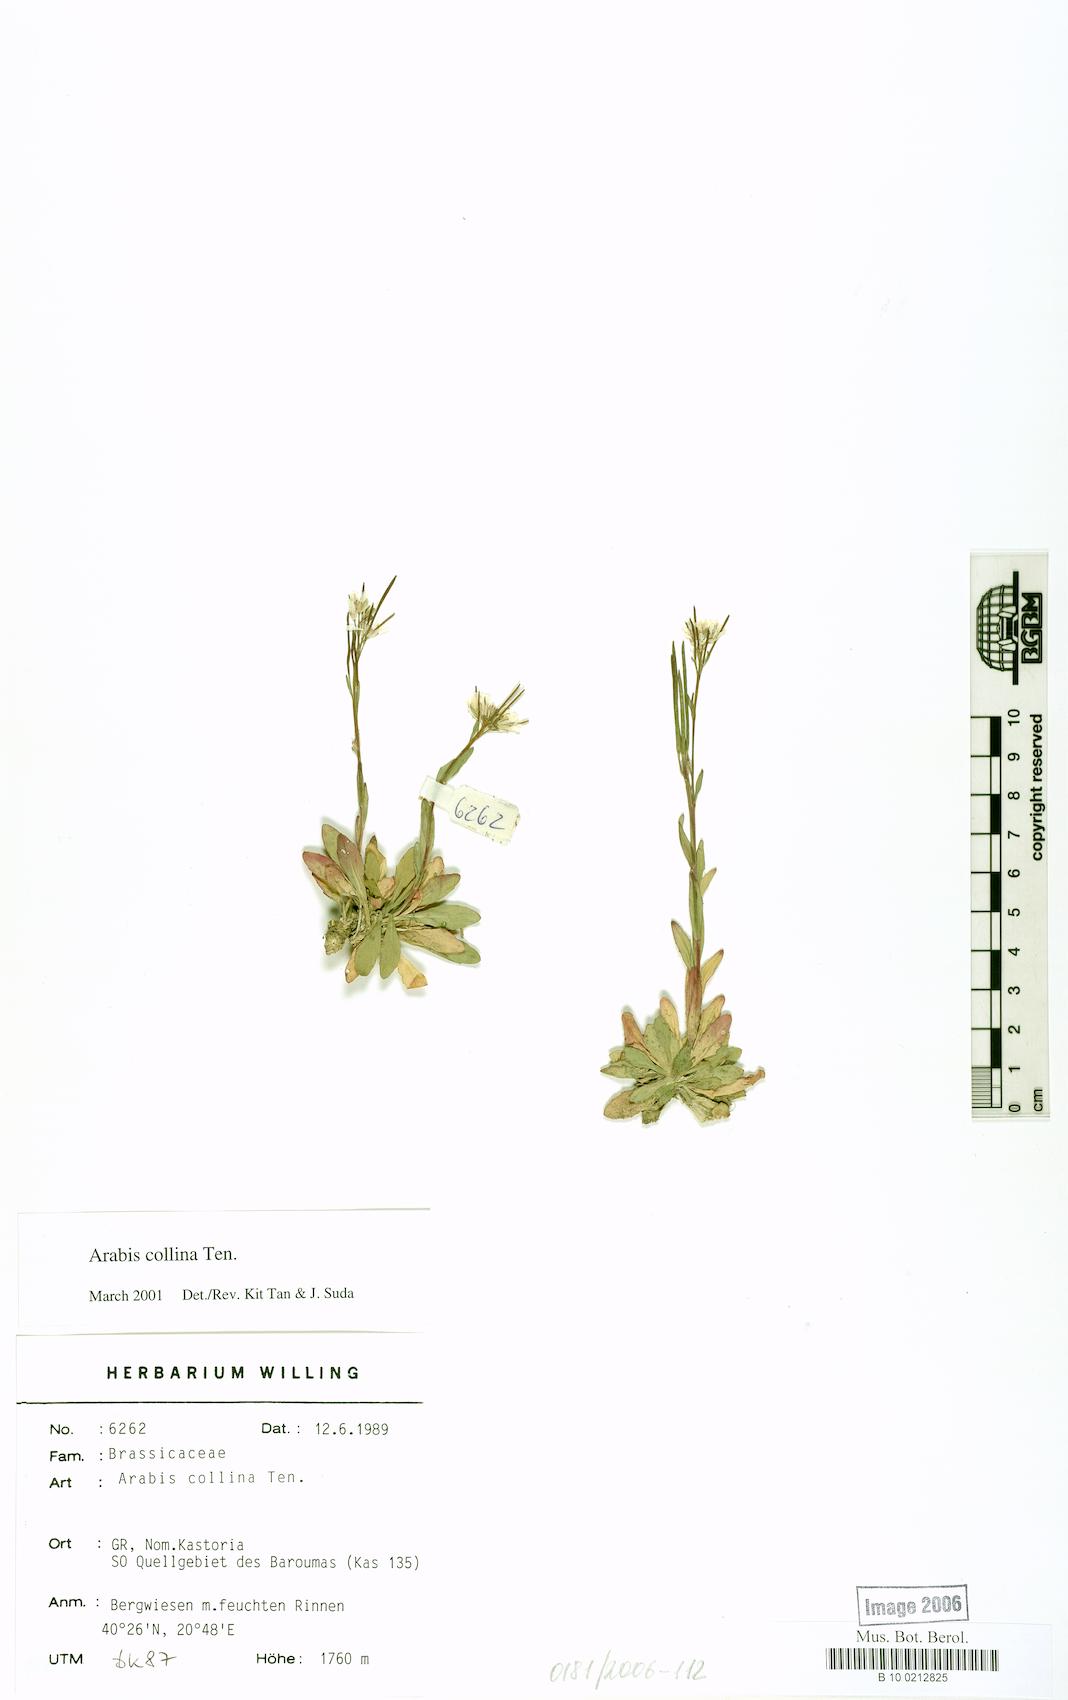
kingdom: Plantae
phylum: Tracheophyta
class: Magnoliopsida
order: Brassicales
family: Brassicaceae
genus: Arabis
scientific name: Arabis collina
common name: Rosy cress
